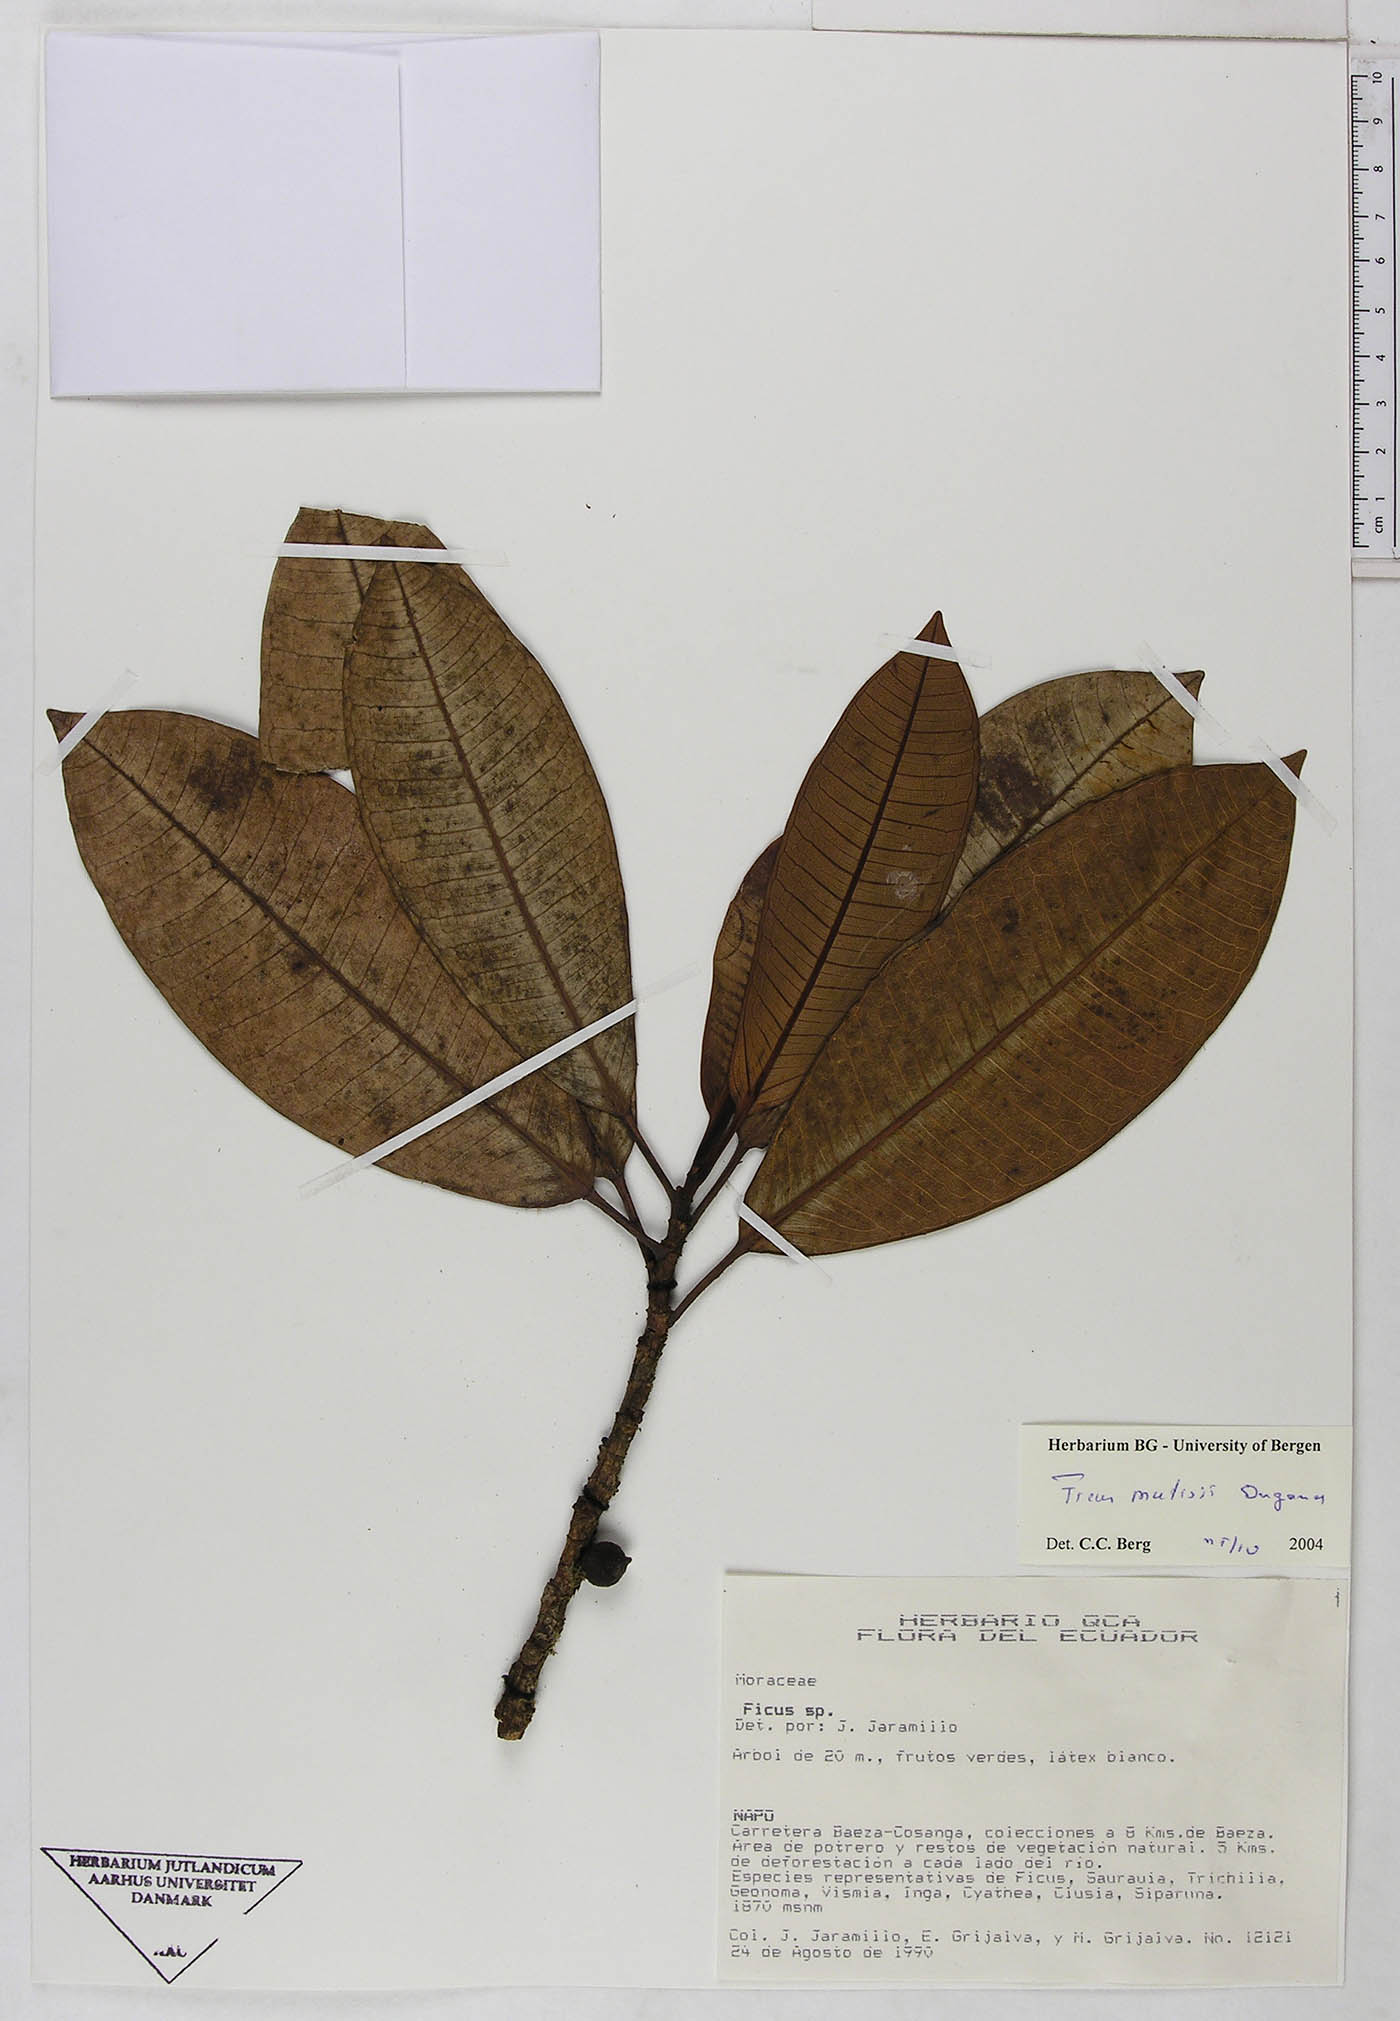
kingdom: Plantae
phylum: Tracheophyta
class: Magnoliopsida
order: Rosales
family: Moraceae
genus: Ficus
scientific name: Ficus quijosana
